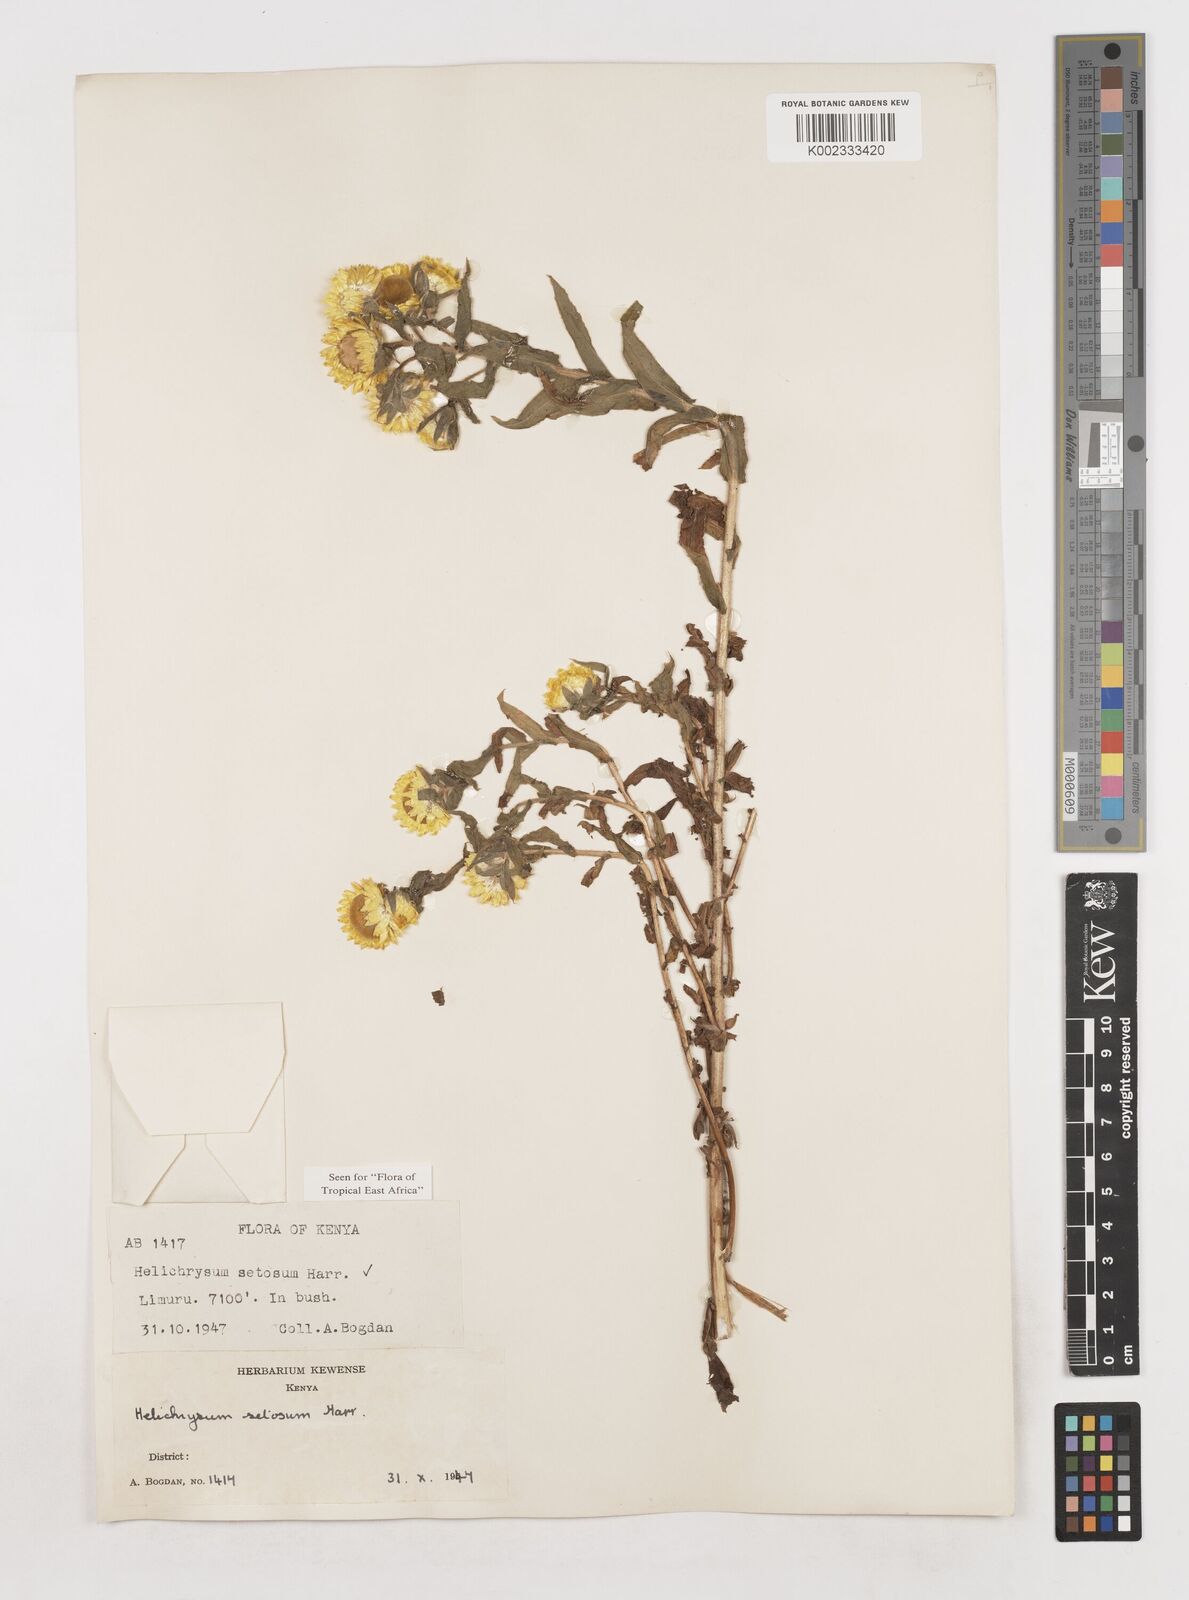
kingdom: Plantae
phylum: Tracheophyta
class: Magnoliopsida
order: Asterales
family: Asteraceae
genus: Helichrysum
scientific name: Helichrysum setosum
